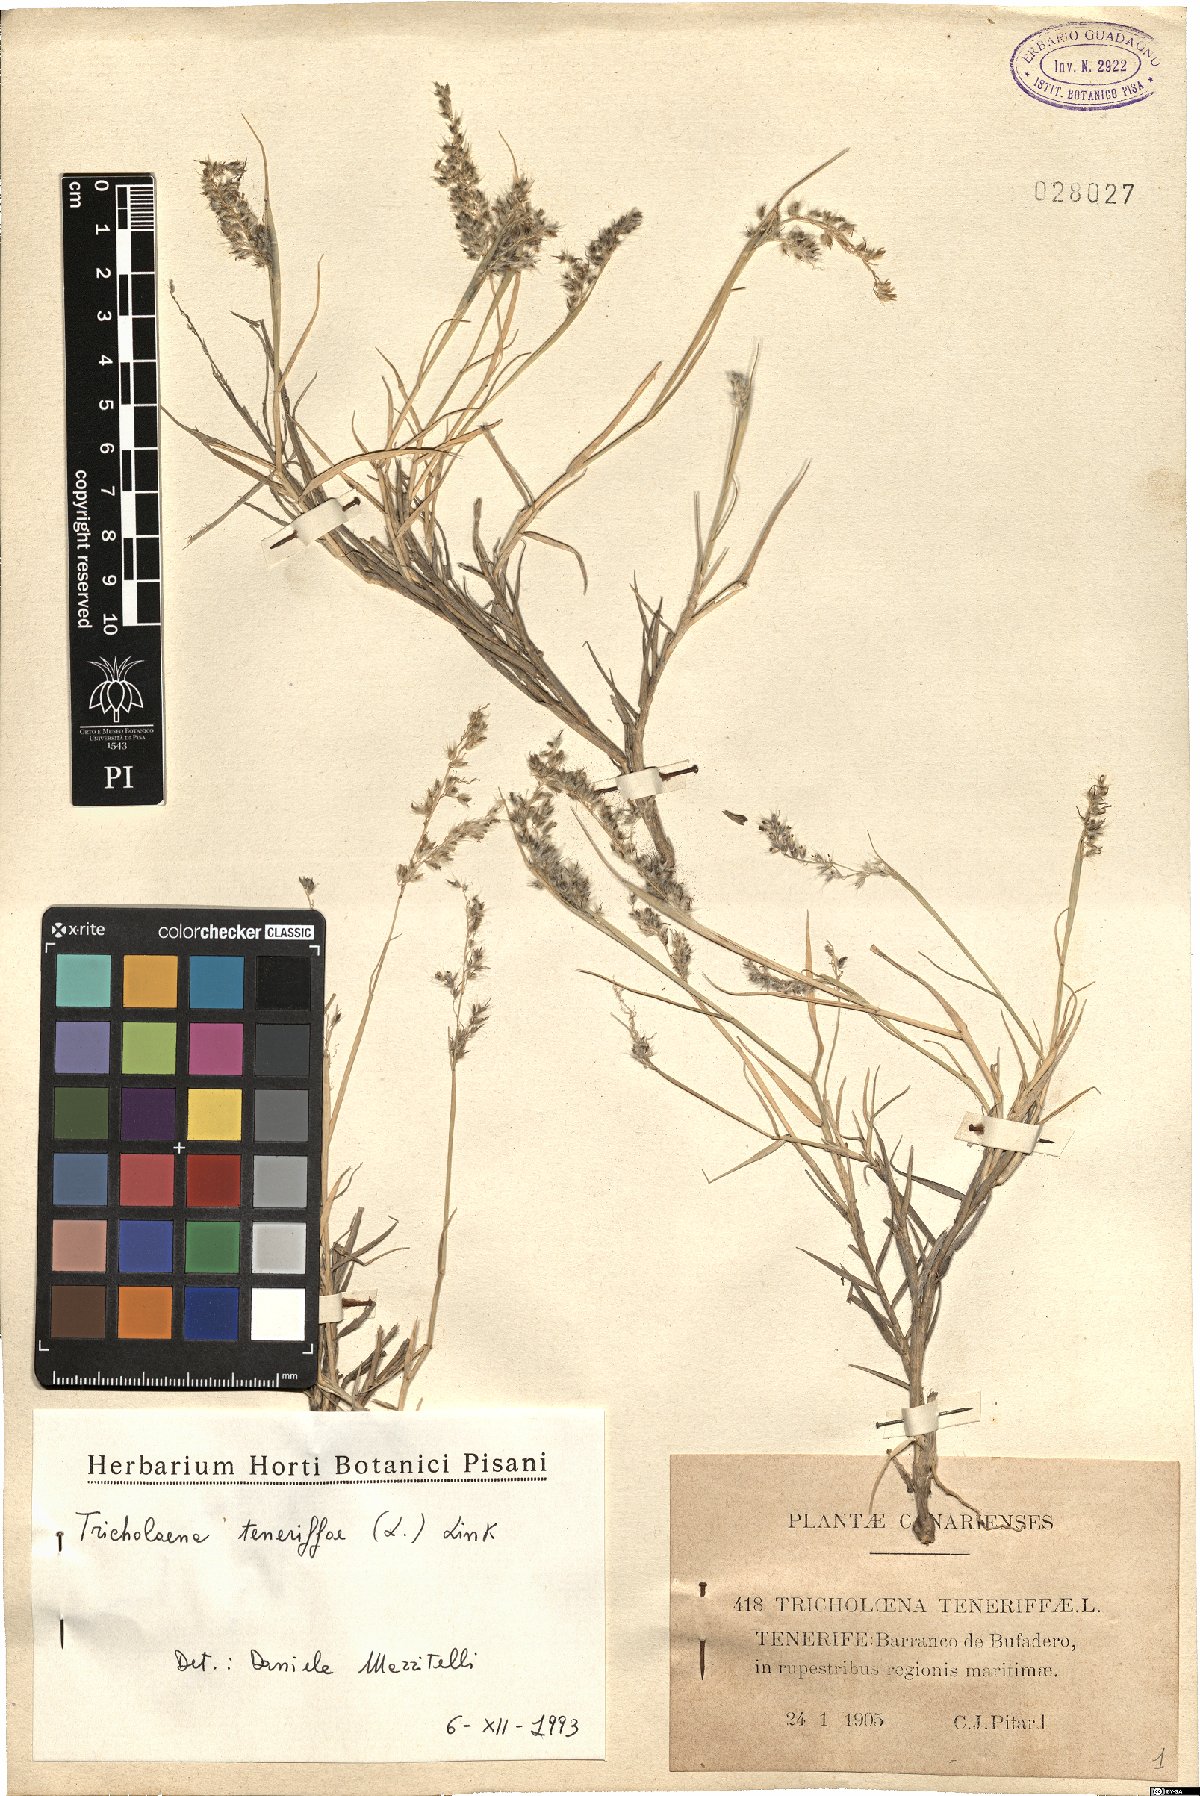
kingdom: Plantae
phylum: Tracheophyta
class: Liliopsida
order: Poales
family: Poaceae
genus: Tricholaena
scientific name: Tricholaena teneriffae
